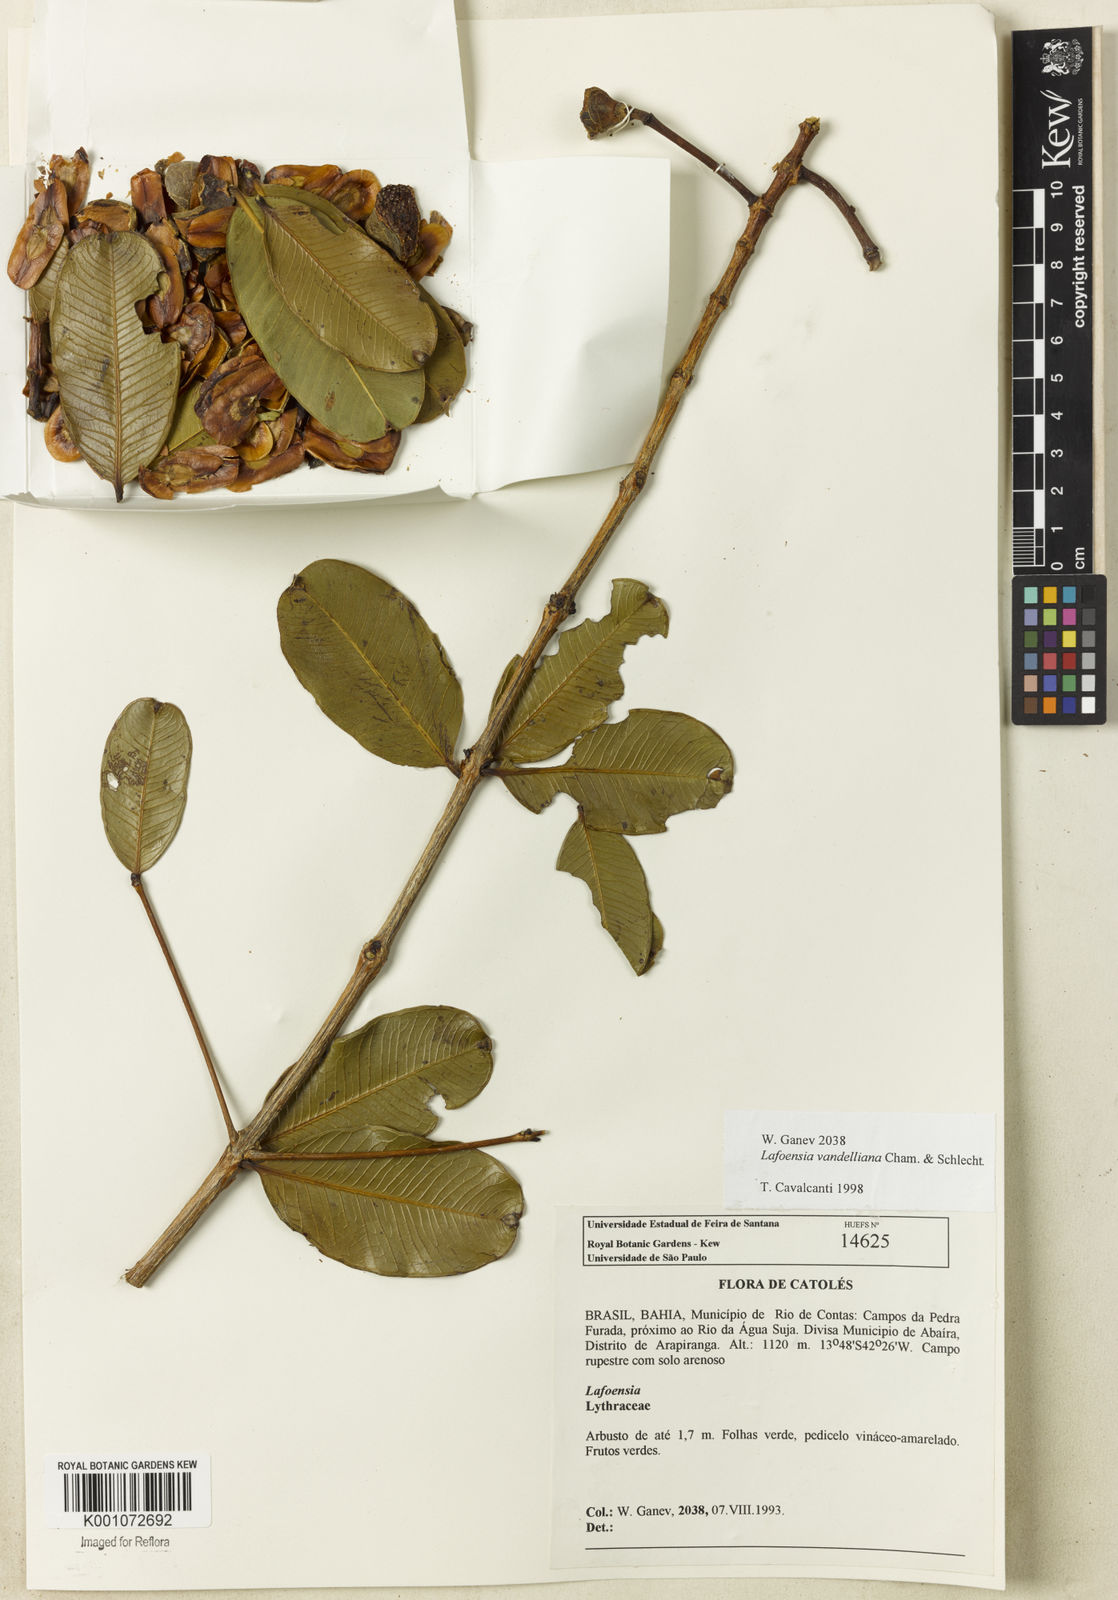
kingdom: Plantae
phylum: Tracheophyta
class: Magnoliopsida
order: Myrtales
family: Lythraceae
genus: Lafoensia
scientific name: Lafoensia vandelliana
